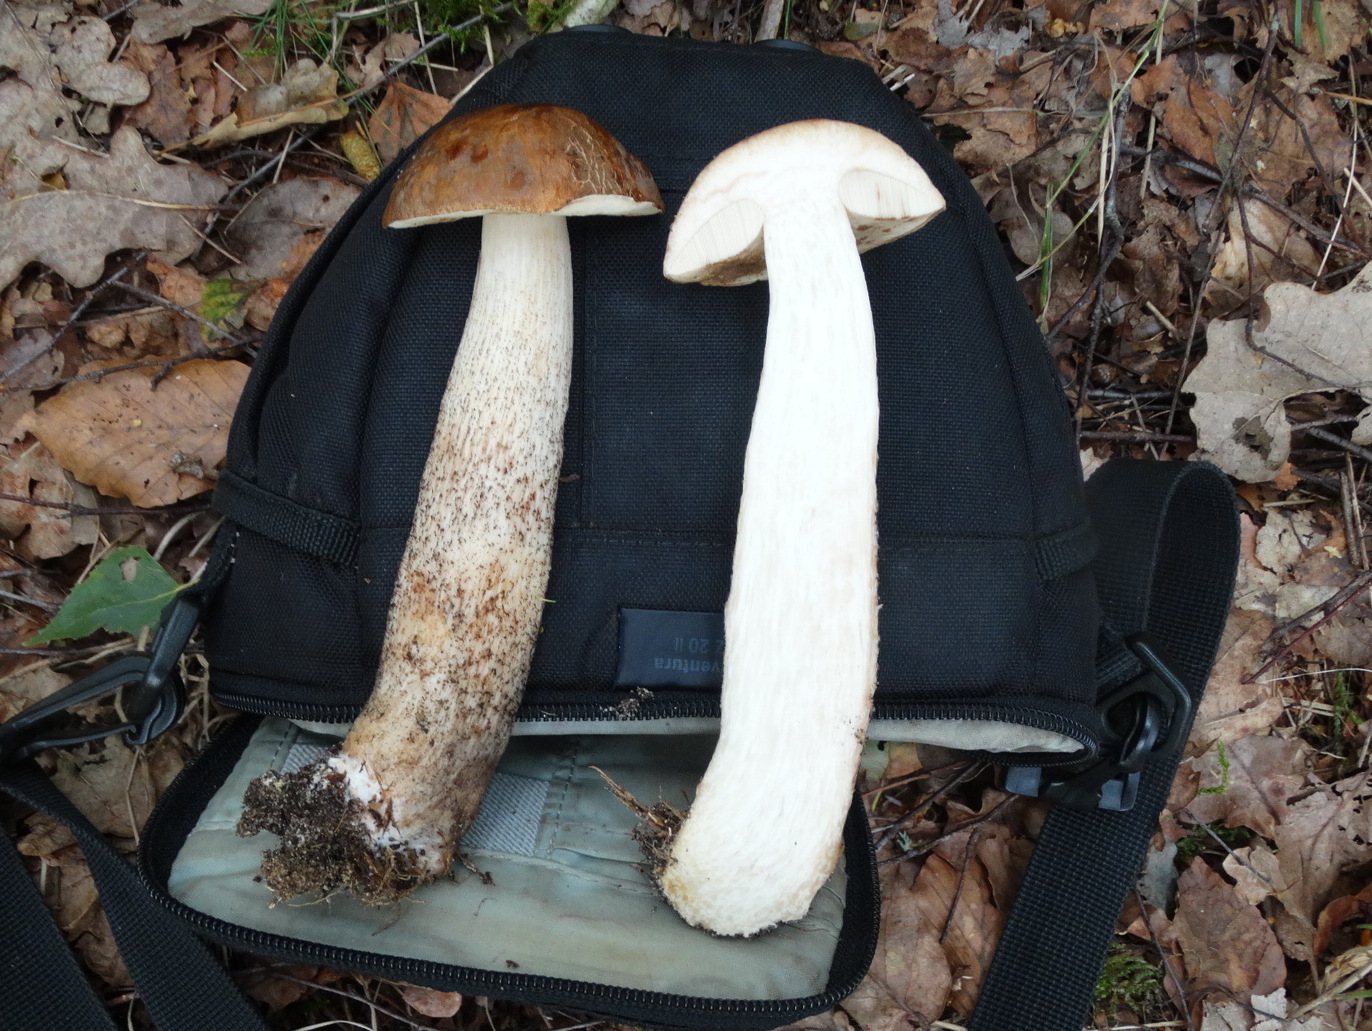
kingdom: Fungi
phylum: Basidiomycota
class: Agaricomycetes
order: Boletales
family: Boletaceae
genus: Leccinum
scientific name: Leccinum scabrum
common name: brun skælrørhat
